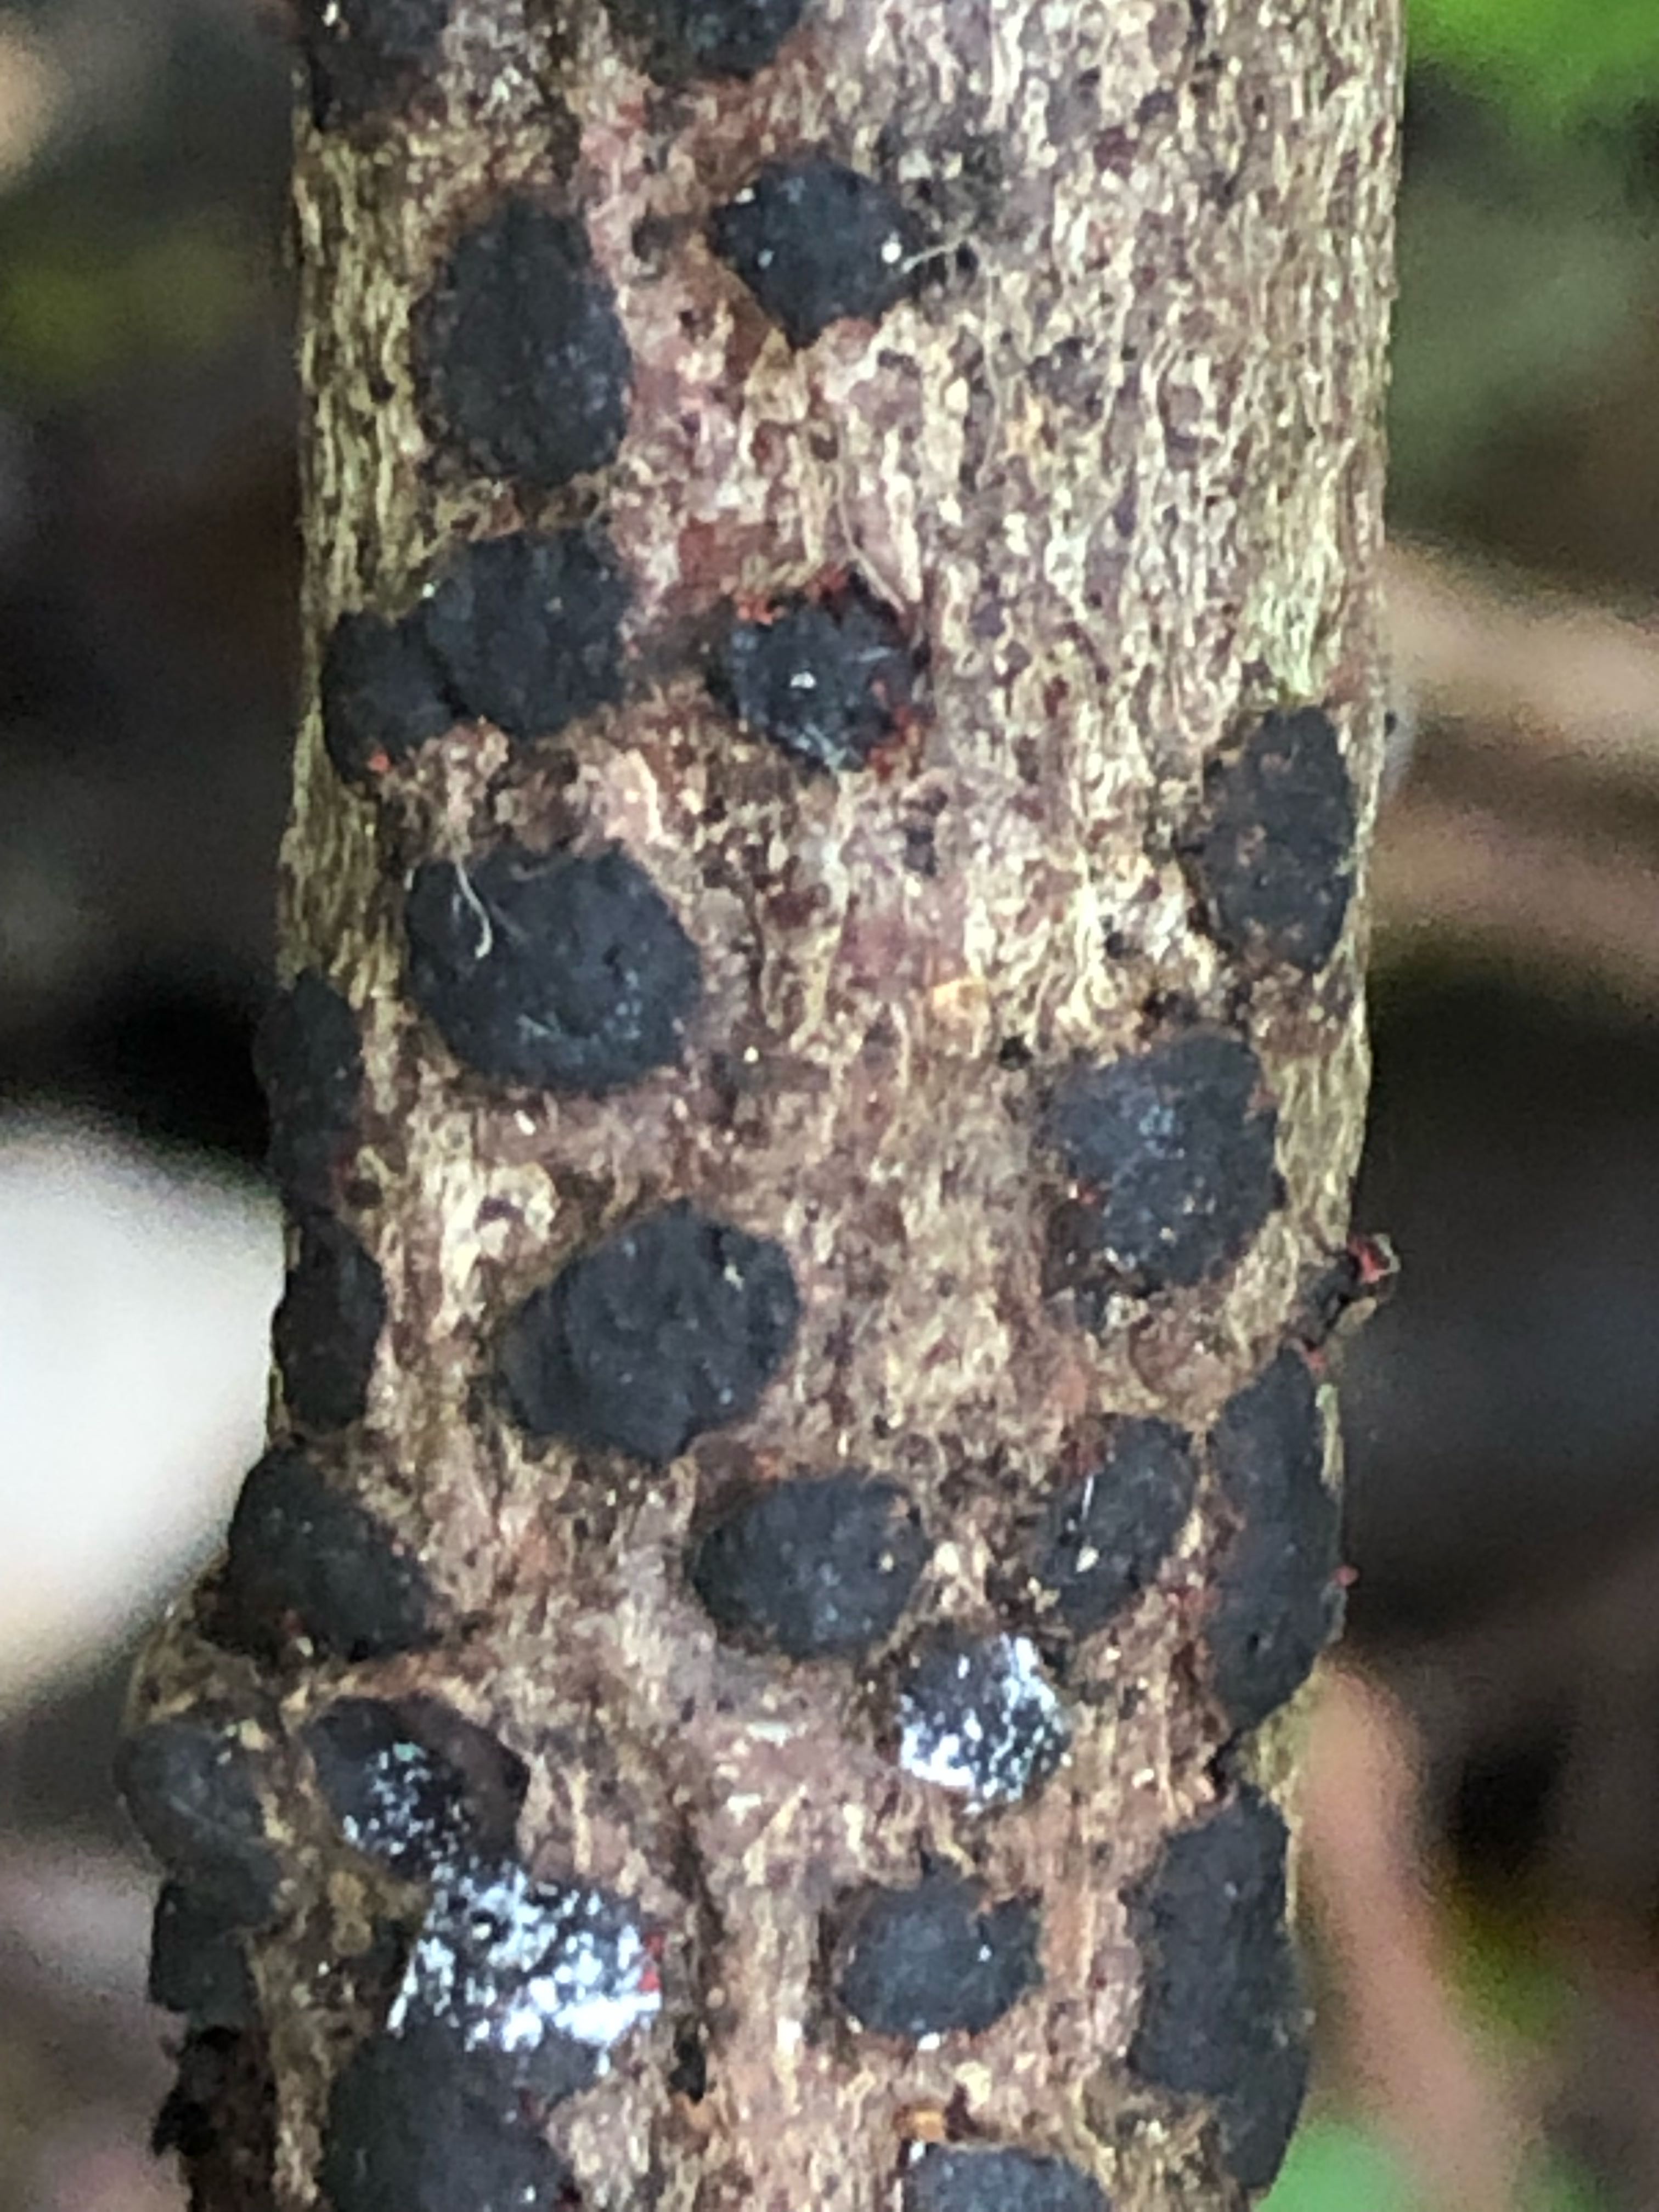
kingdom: Fungi
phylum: Ascomycota
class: Sordariomycetes
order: Xylariales
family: Diatrypaceae
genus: Diatrype
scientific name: Diatrype bullata
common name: pile-kulskorpe
